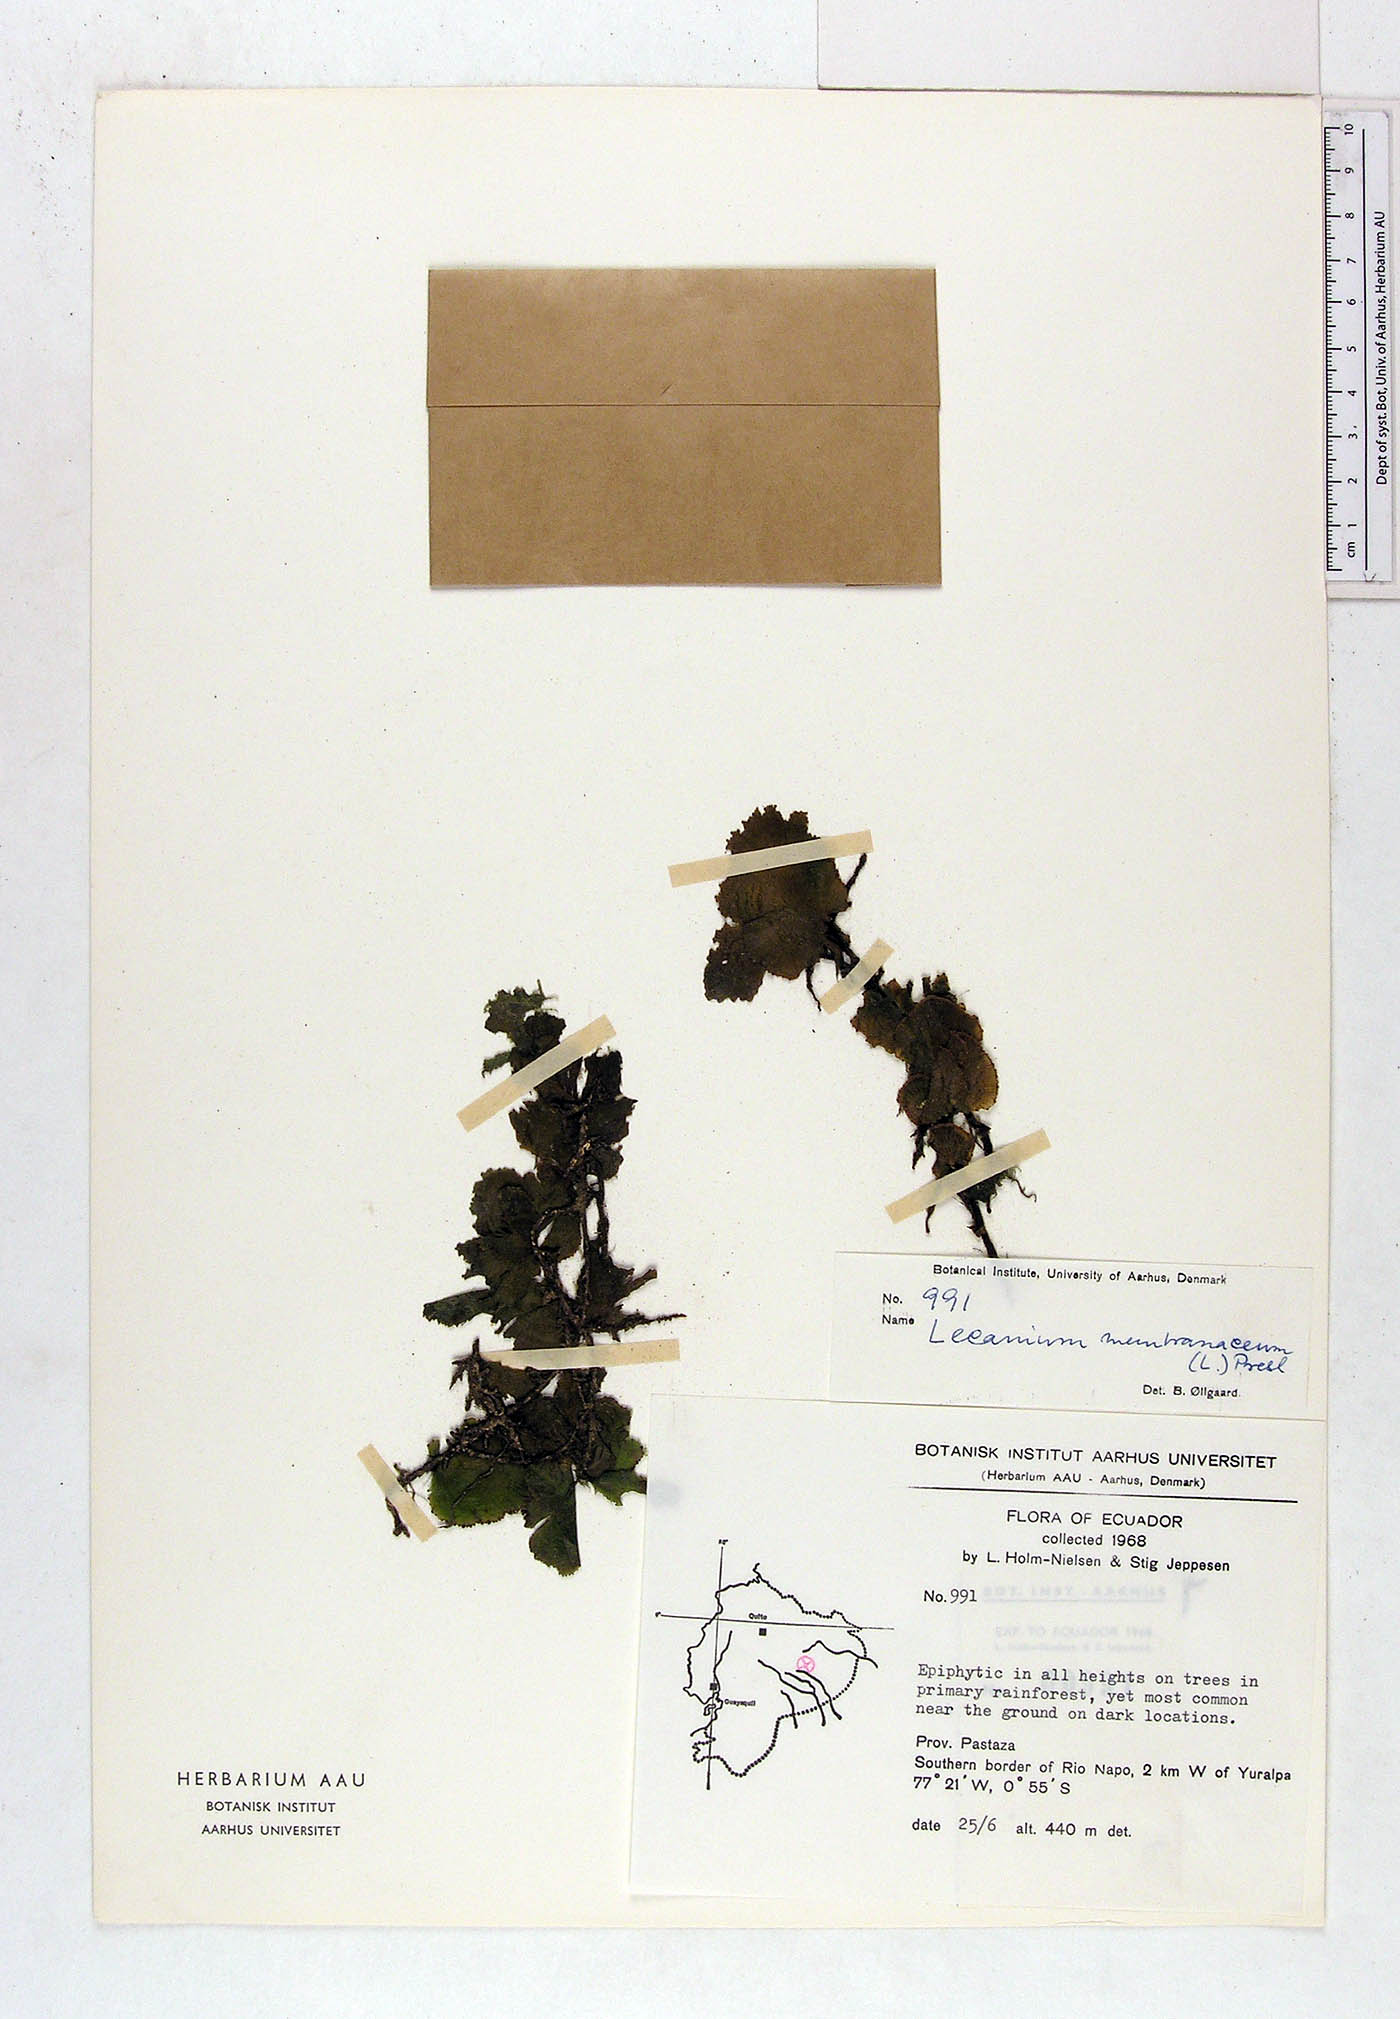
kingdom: Plantae
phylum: Tracheophyta
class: Polypodiopsida
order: Hymenophyllales
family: Hymenophyllaceae
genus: Didymoglossum
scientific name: Didymoglossum membranaceum
